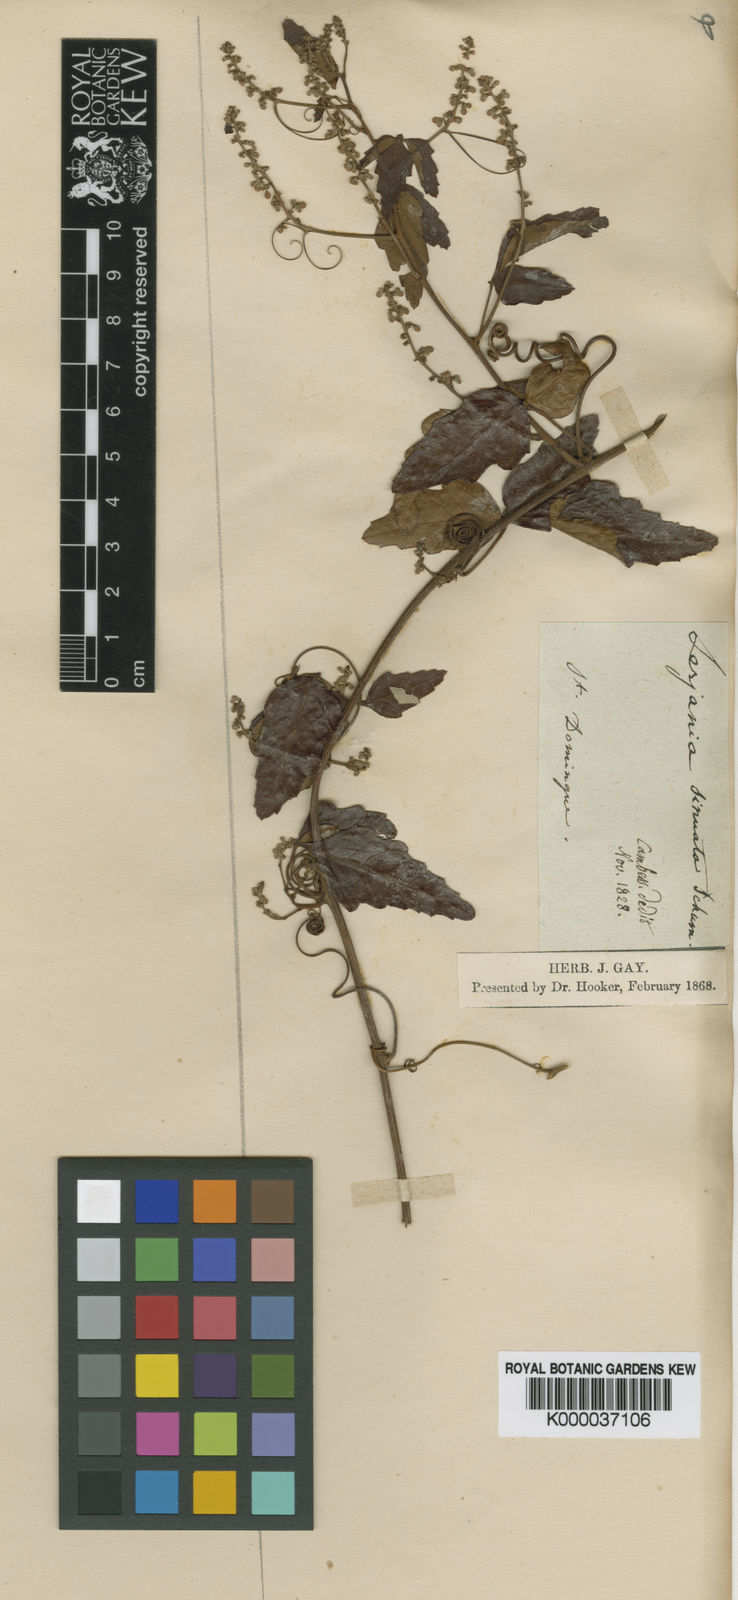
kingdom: Plantae
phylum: Tracheophyta
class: Magnoliopsida
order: Sapindales
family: Sapindaceae
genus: Serjania
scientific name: Serjania
